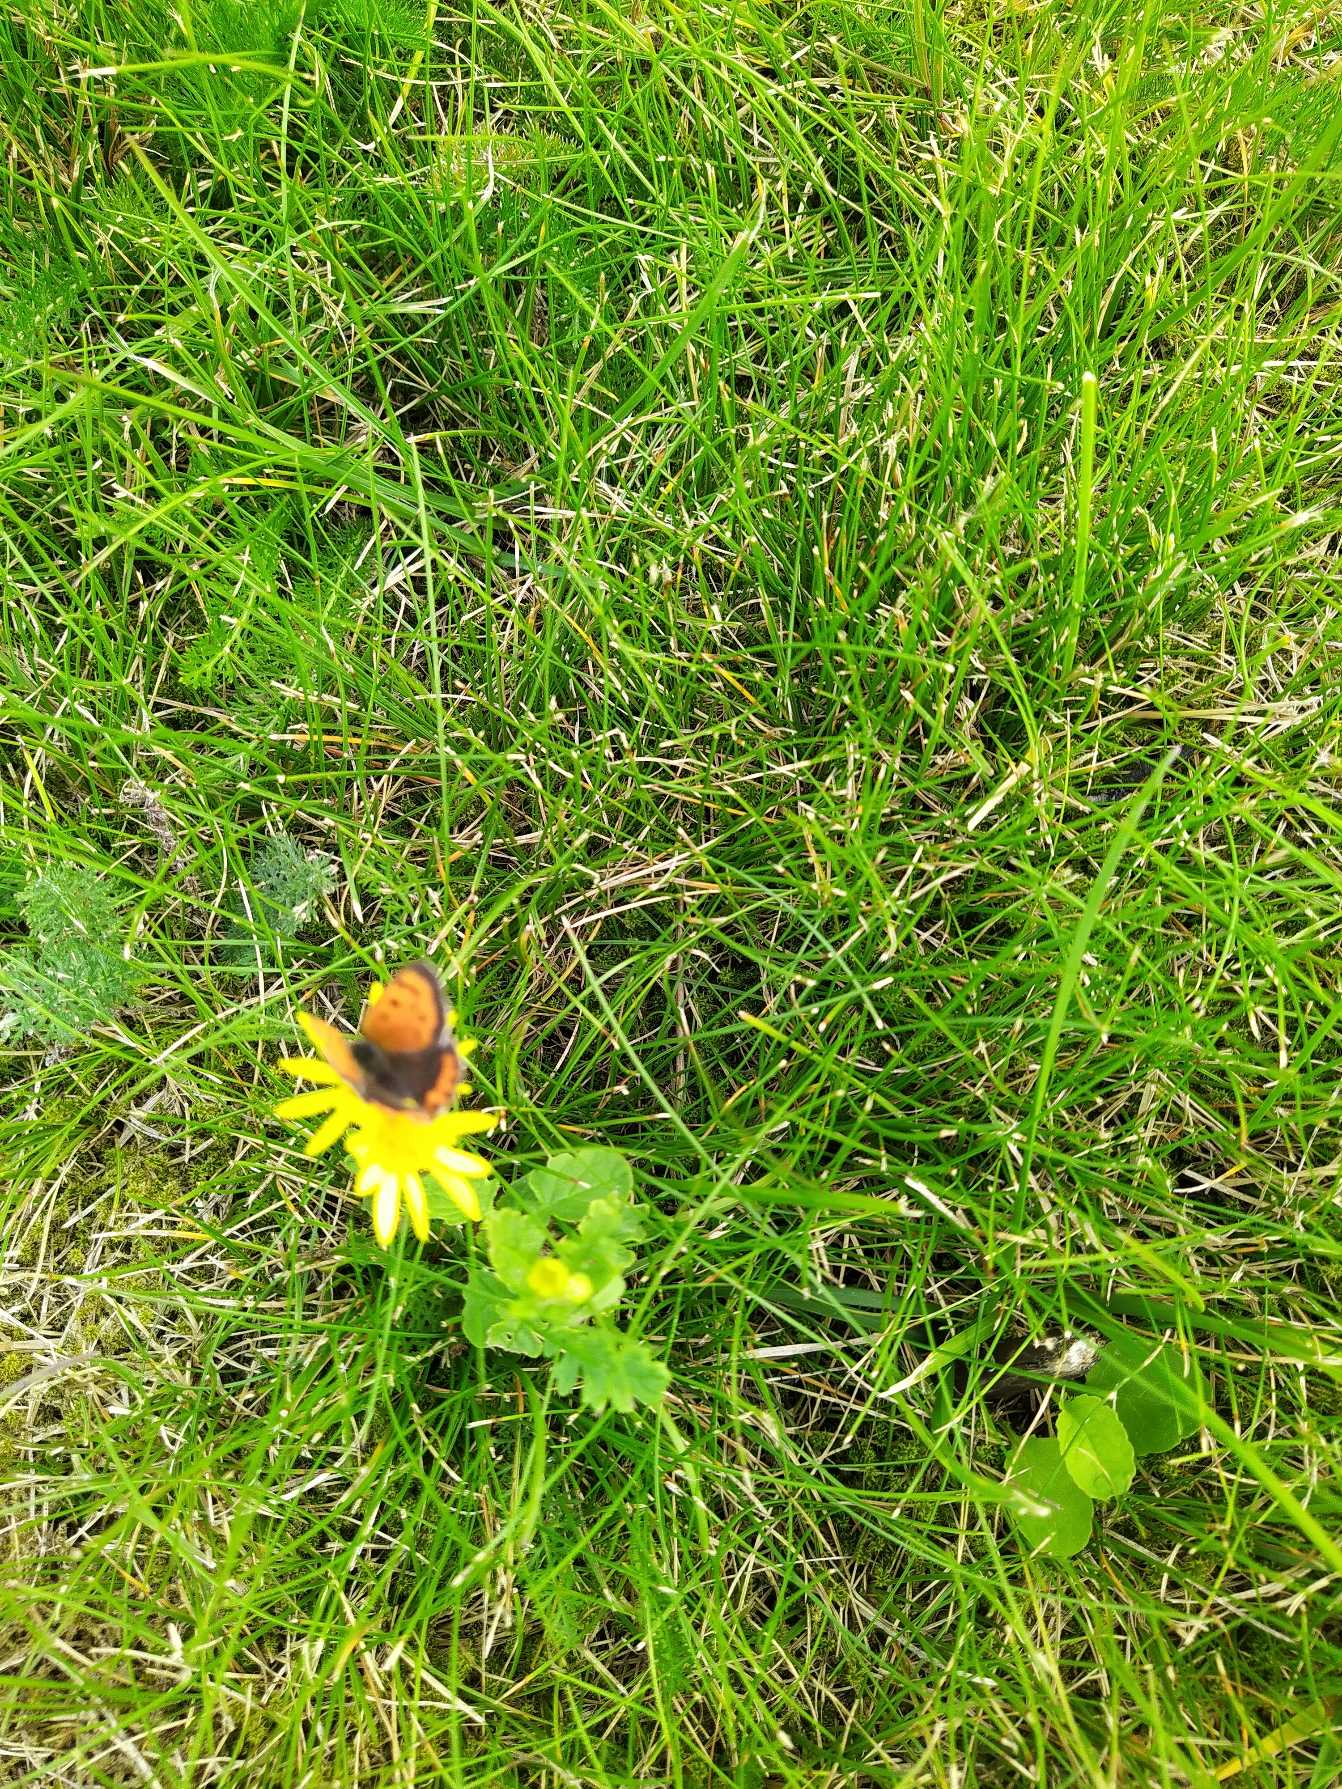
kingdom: Animalia
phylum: Arthropoda
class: Insecta
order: Lepidoptera
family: Lycaenidae
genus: Lycaena
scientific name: Lycaena phlaeas
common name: Lille ildfugl
